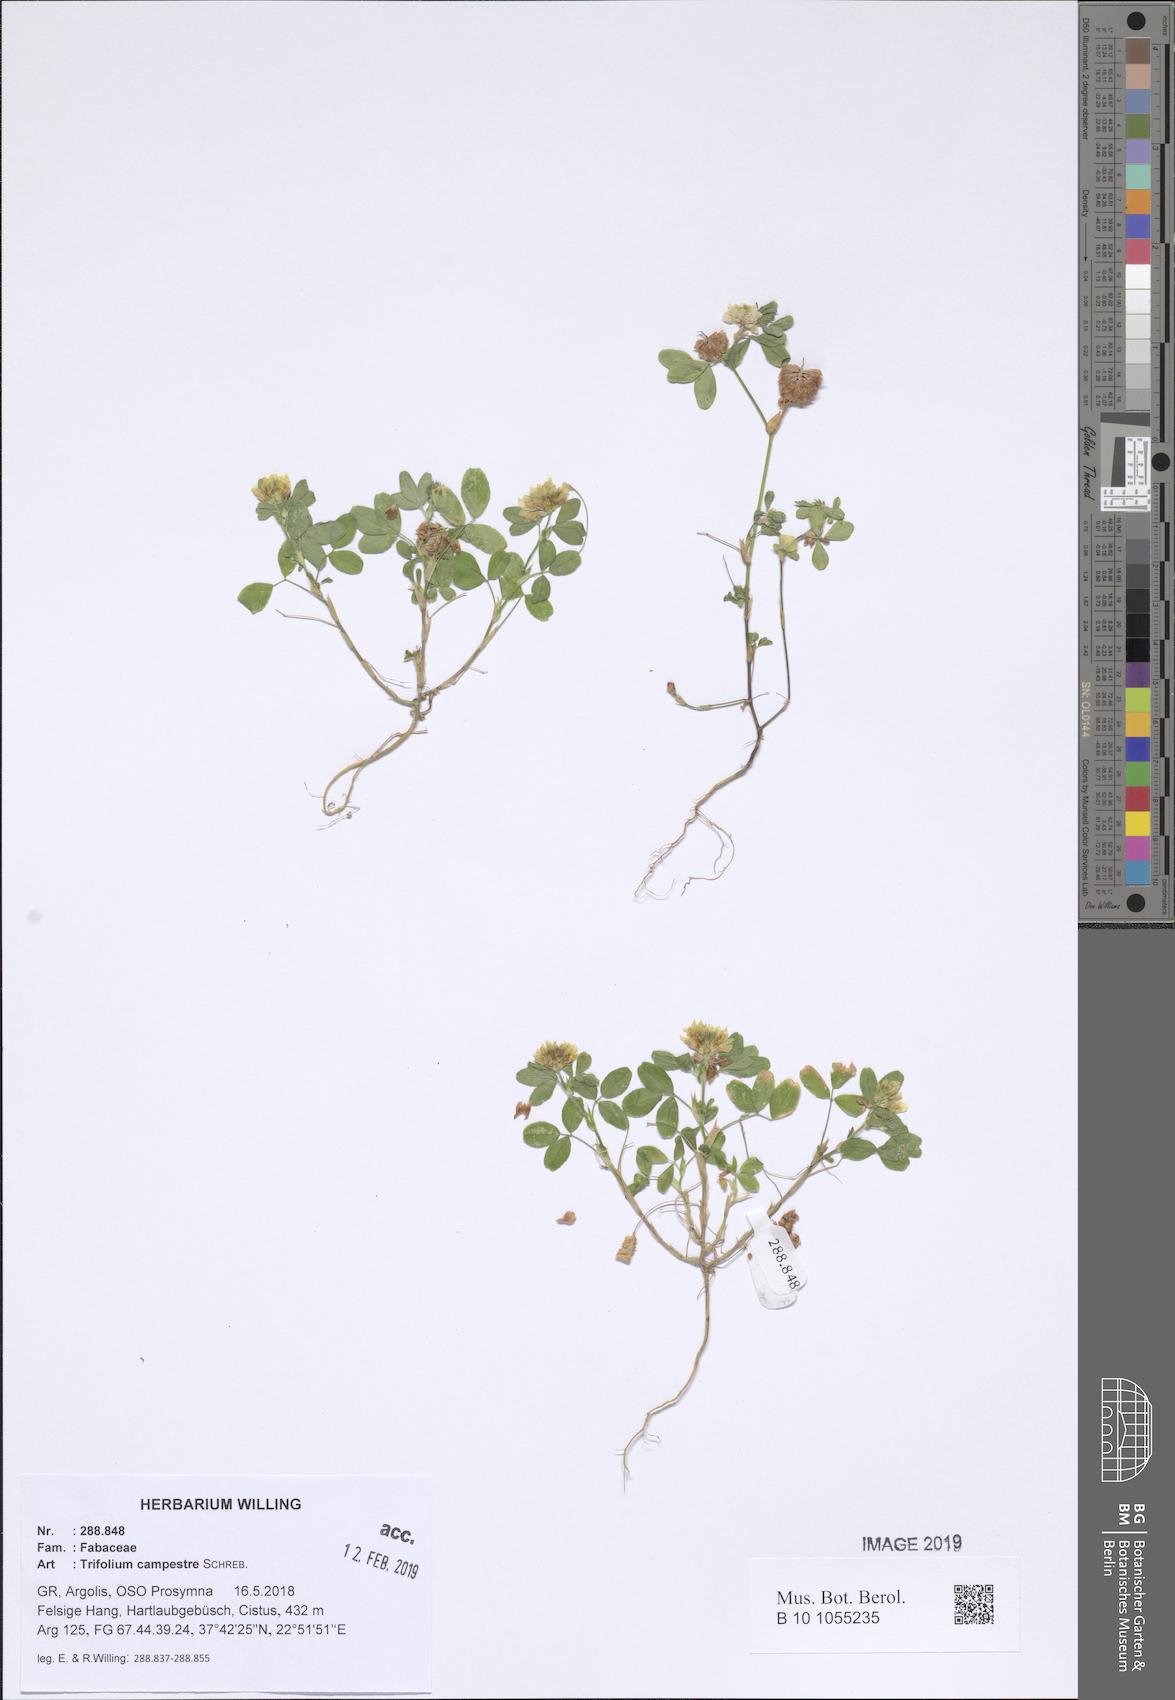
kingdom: Plantae
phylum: Tracheophyta
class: Magnoliopsida
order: Fabales
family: Fabaceae
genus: Trifolium
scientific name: Trifolium campestre
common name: Field clover
